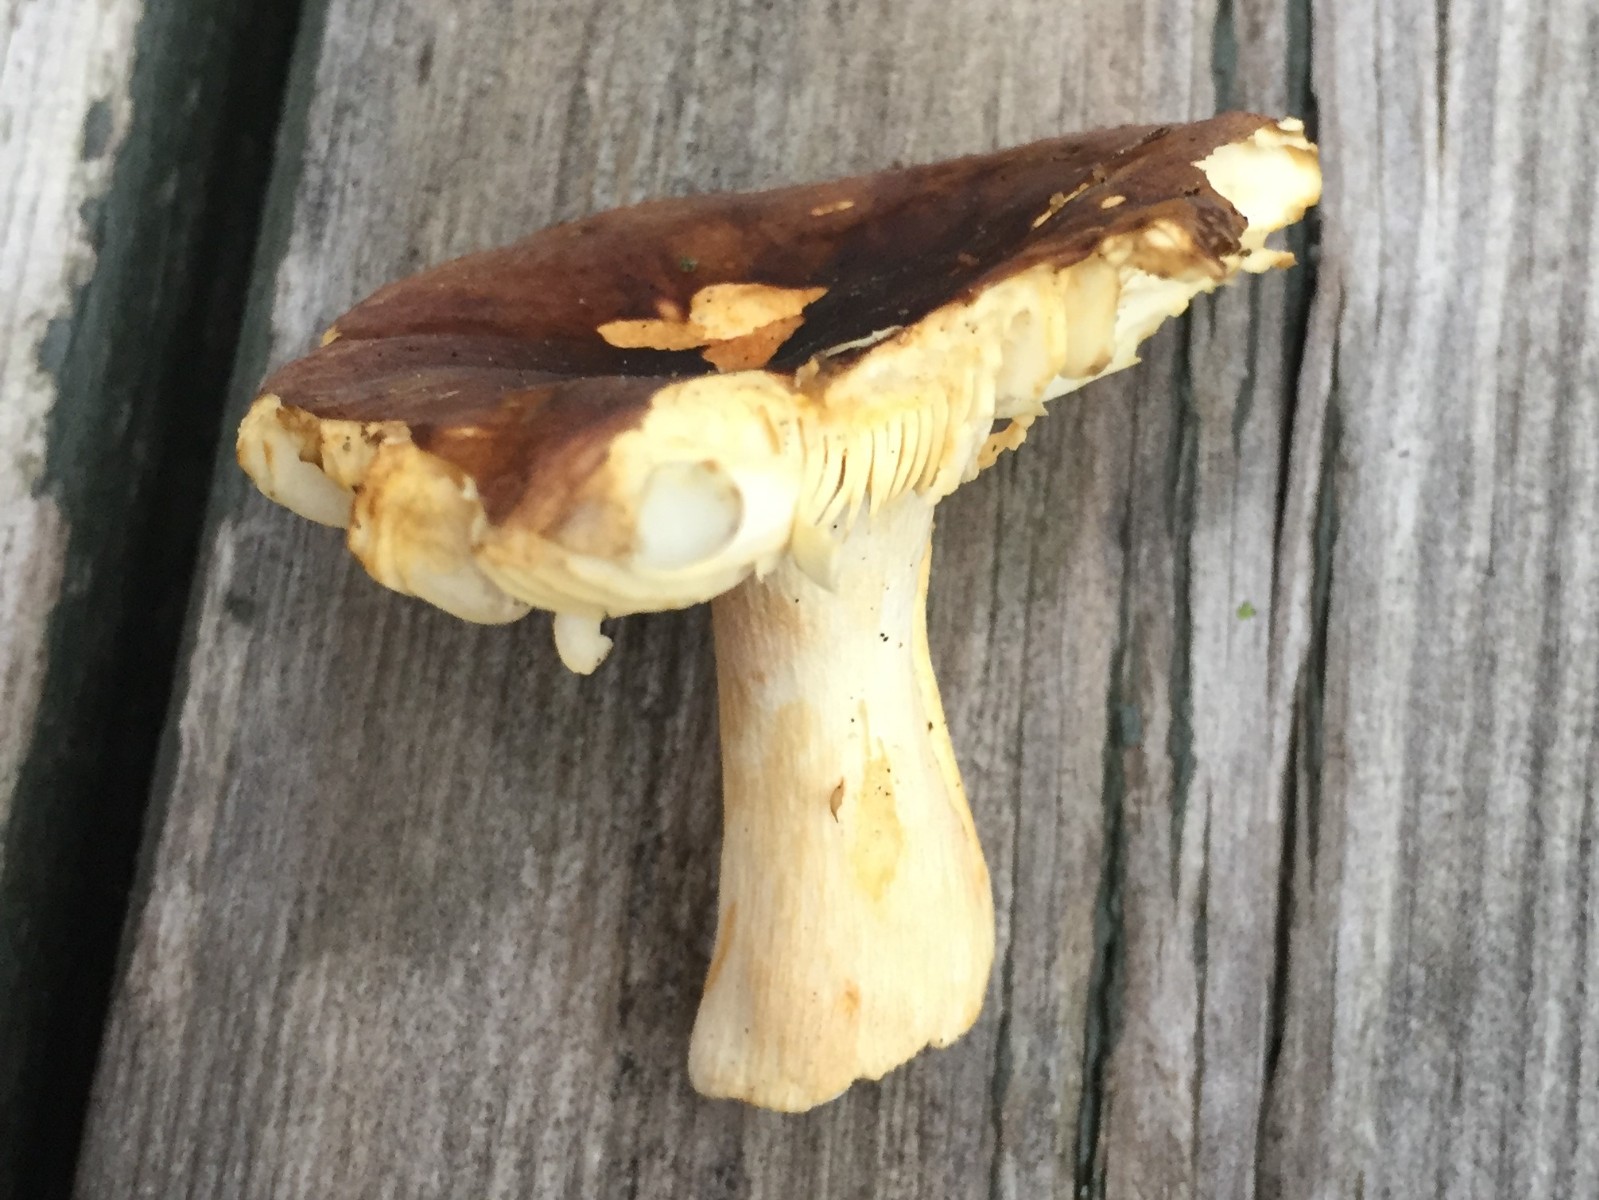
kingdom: Fungi
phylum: Basidiomycota
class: Agaricomycetes
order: Russulales
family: Russulaceae
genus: Russula
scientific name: Russula puellaris
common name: gulstokket skørhat
